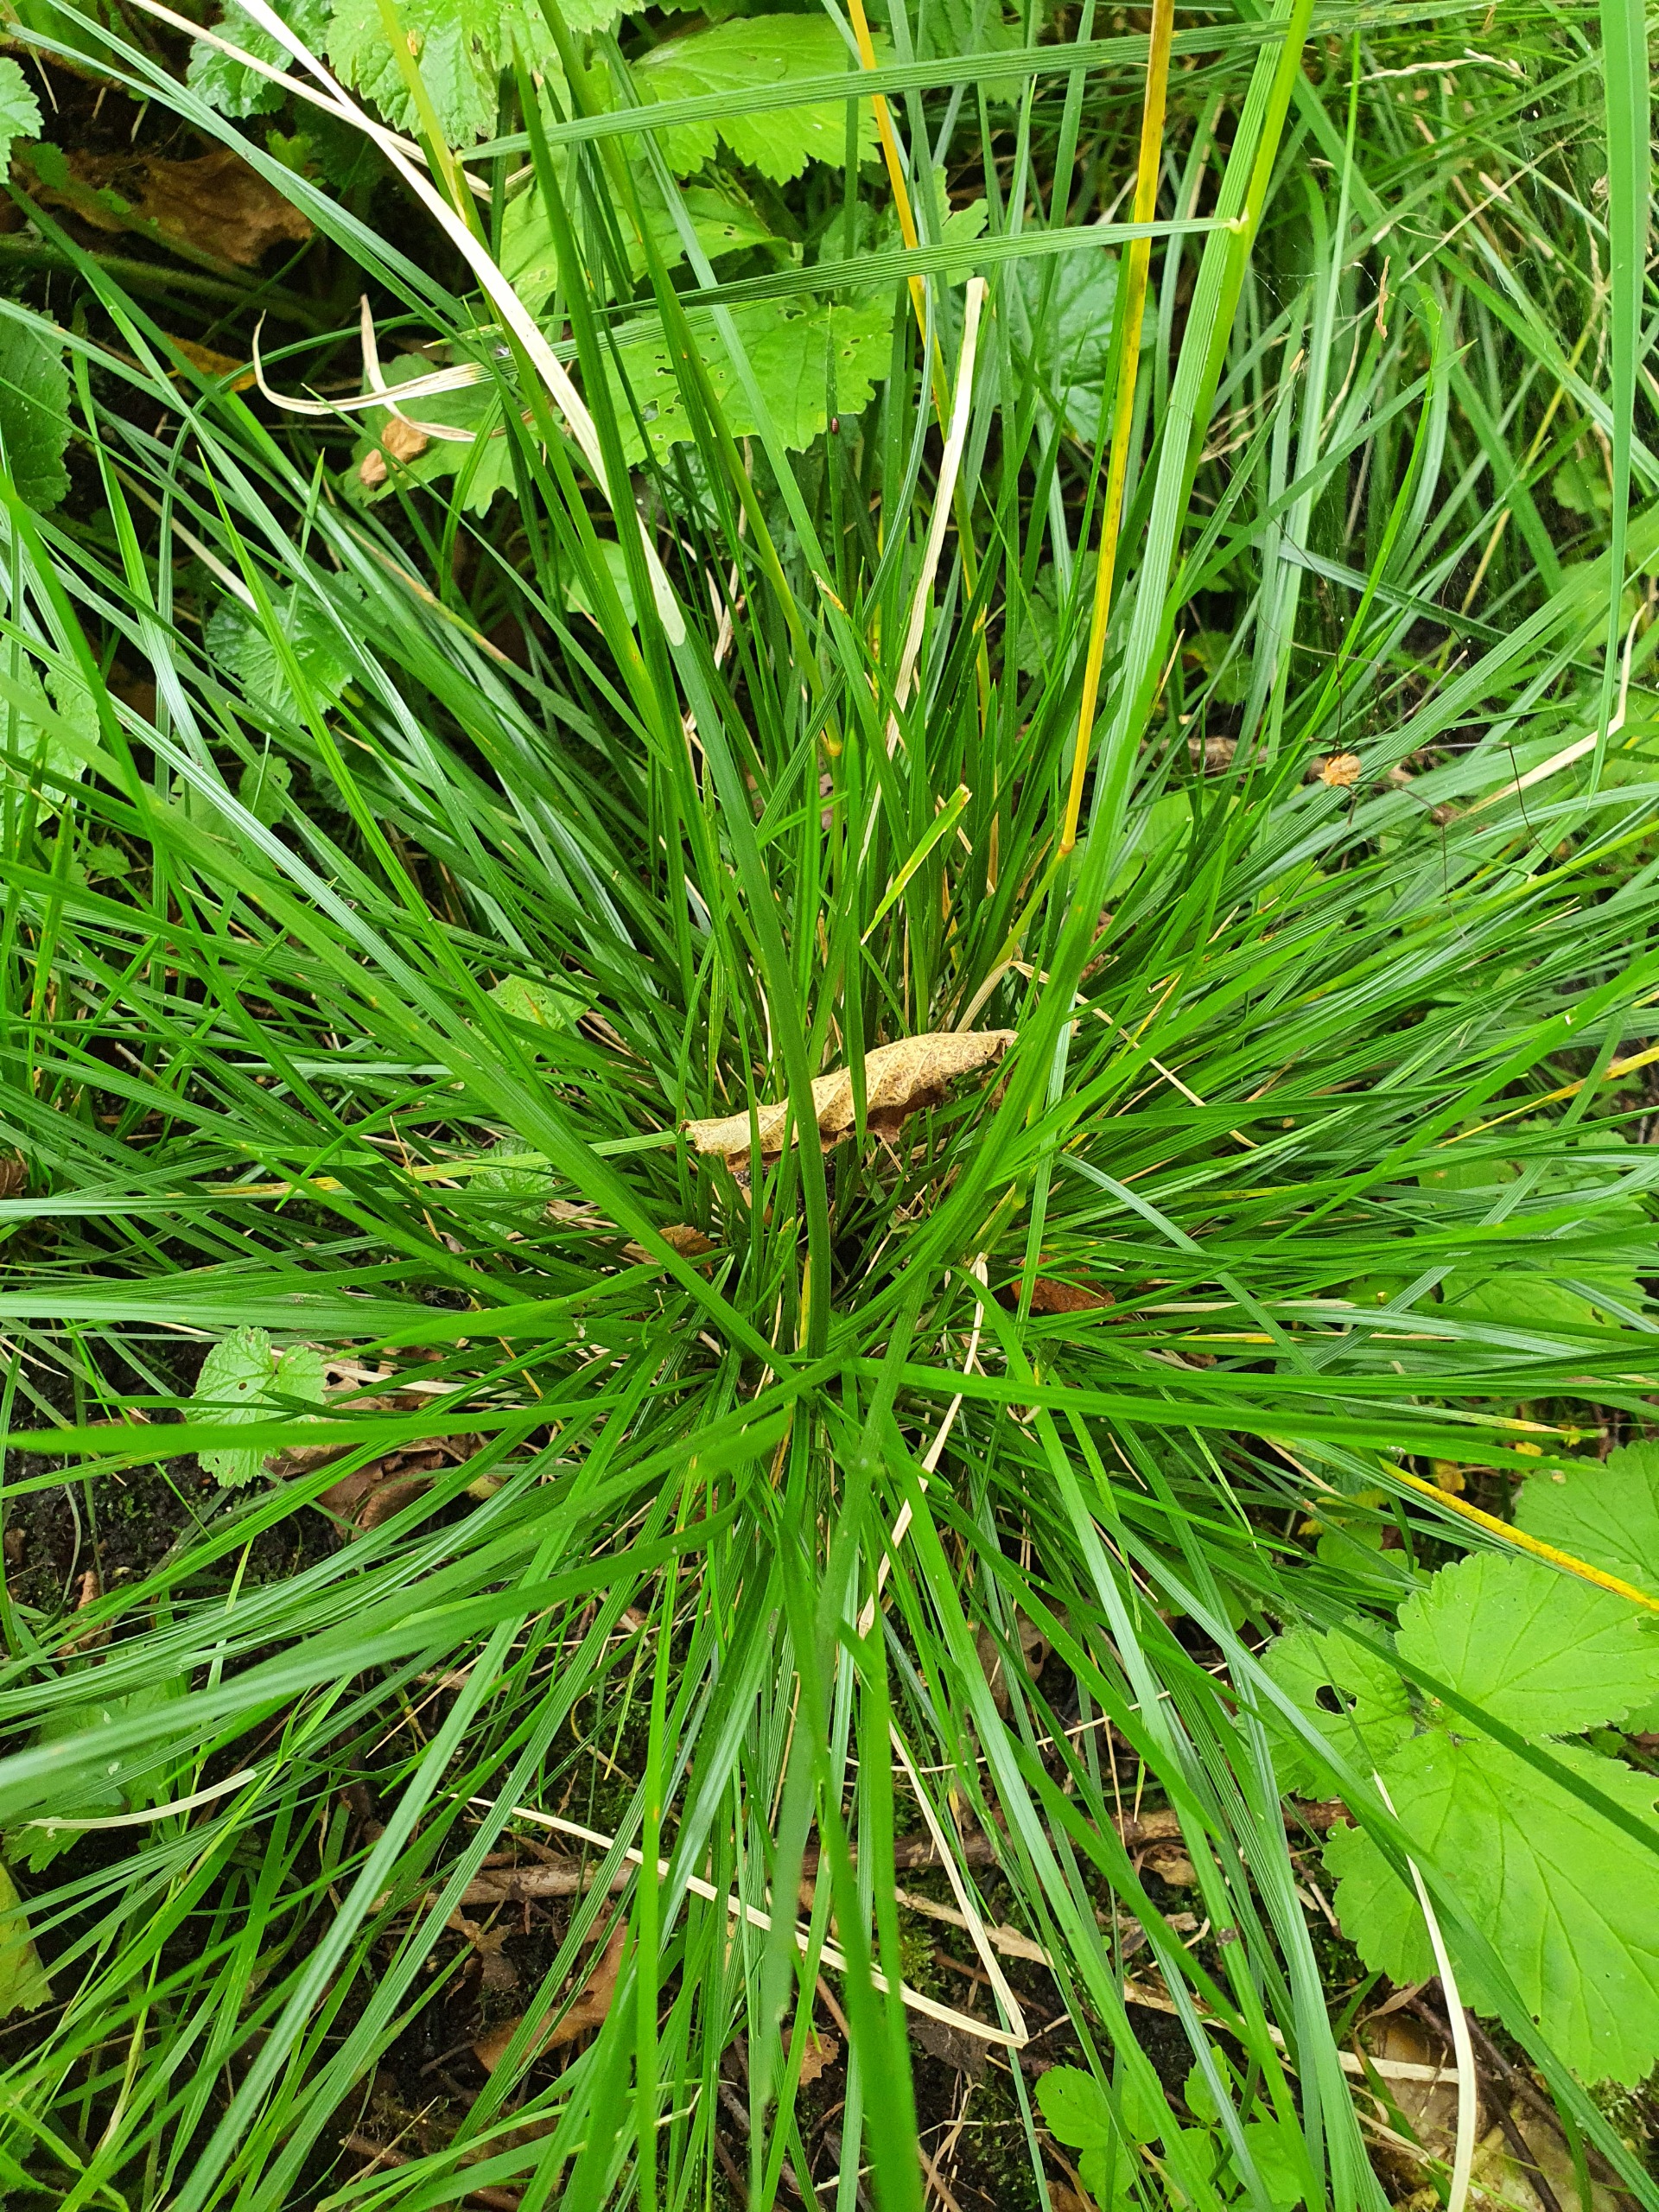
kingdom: Plantae
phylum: Tracheophyta
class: Liliopsida
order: Poales
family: Poaceae
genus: Deschampsia
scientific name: Deschampsia cespitosa
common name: Mose-bunke
